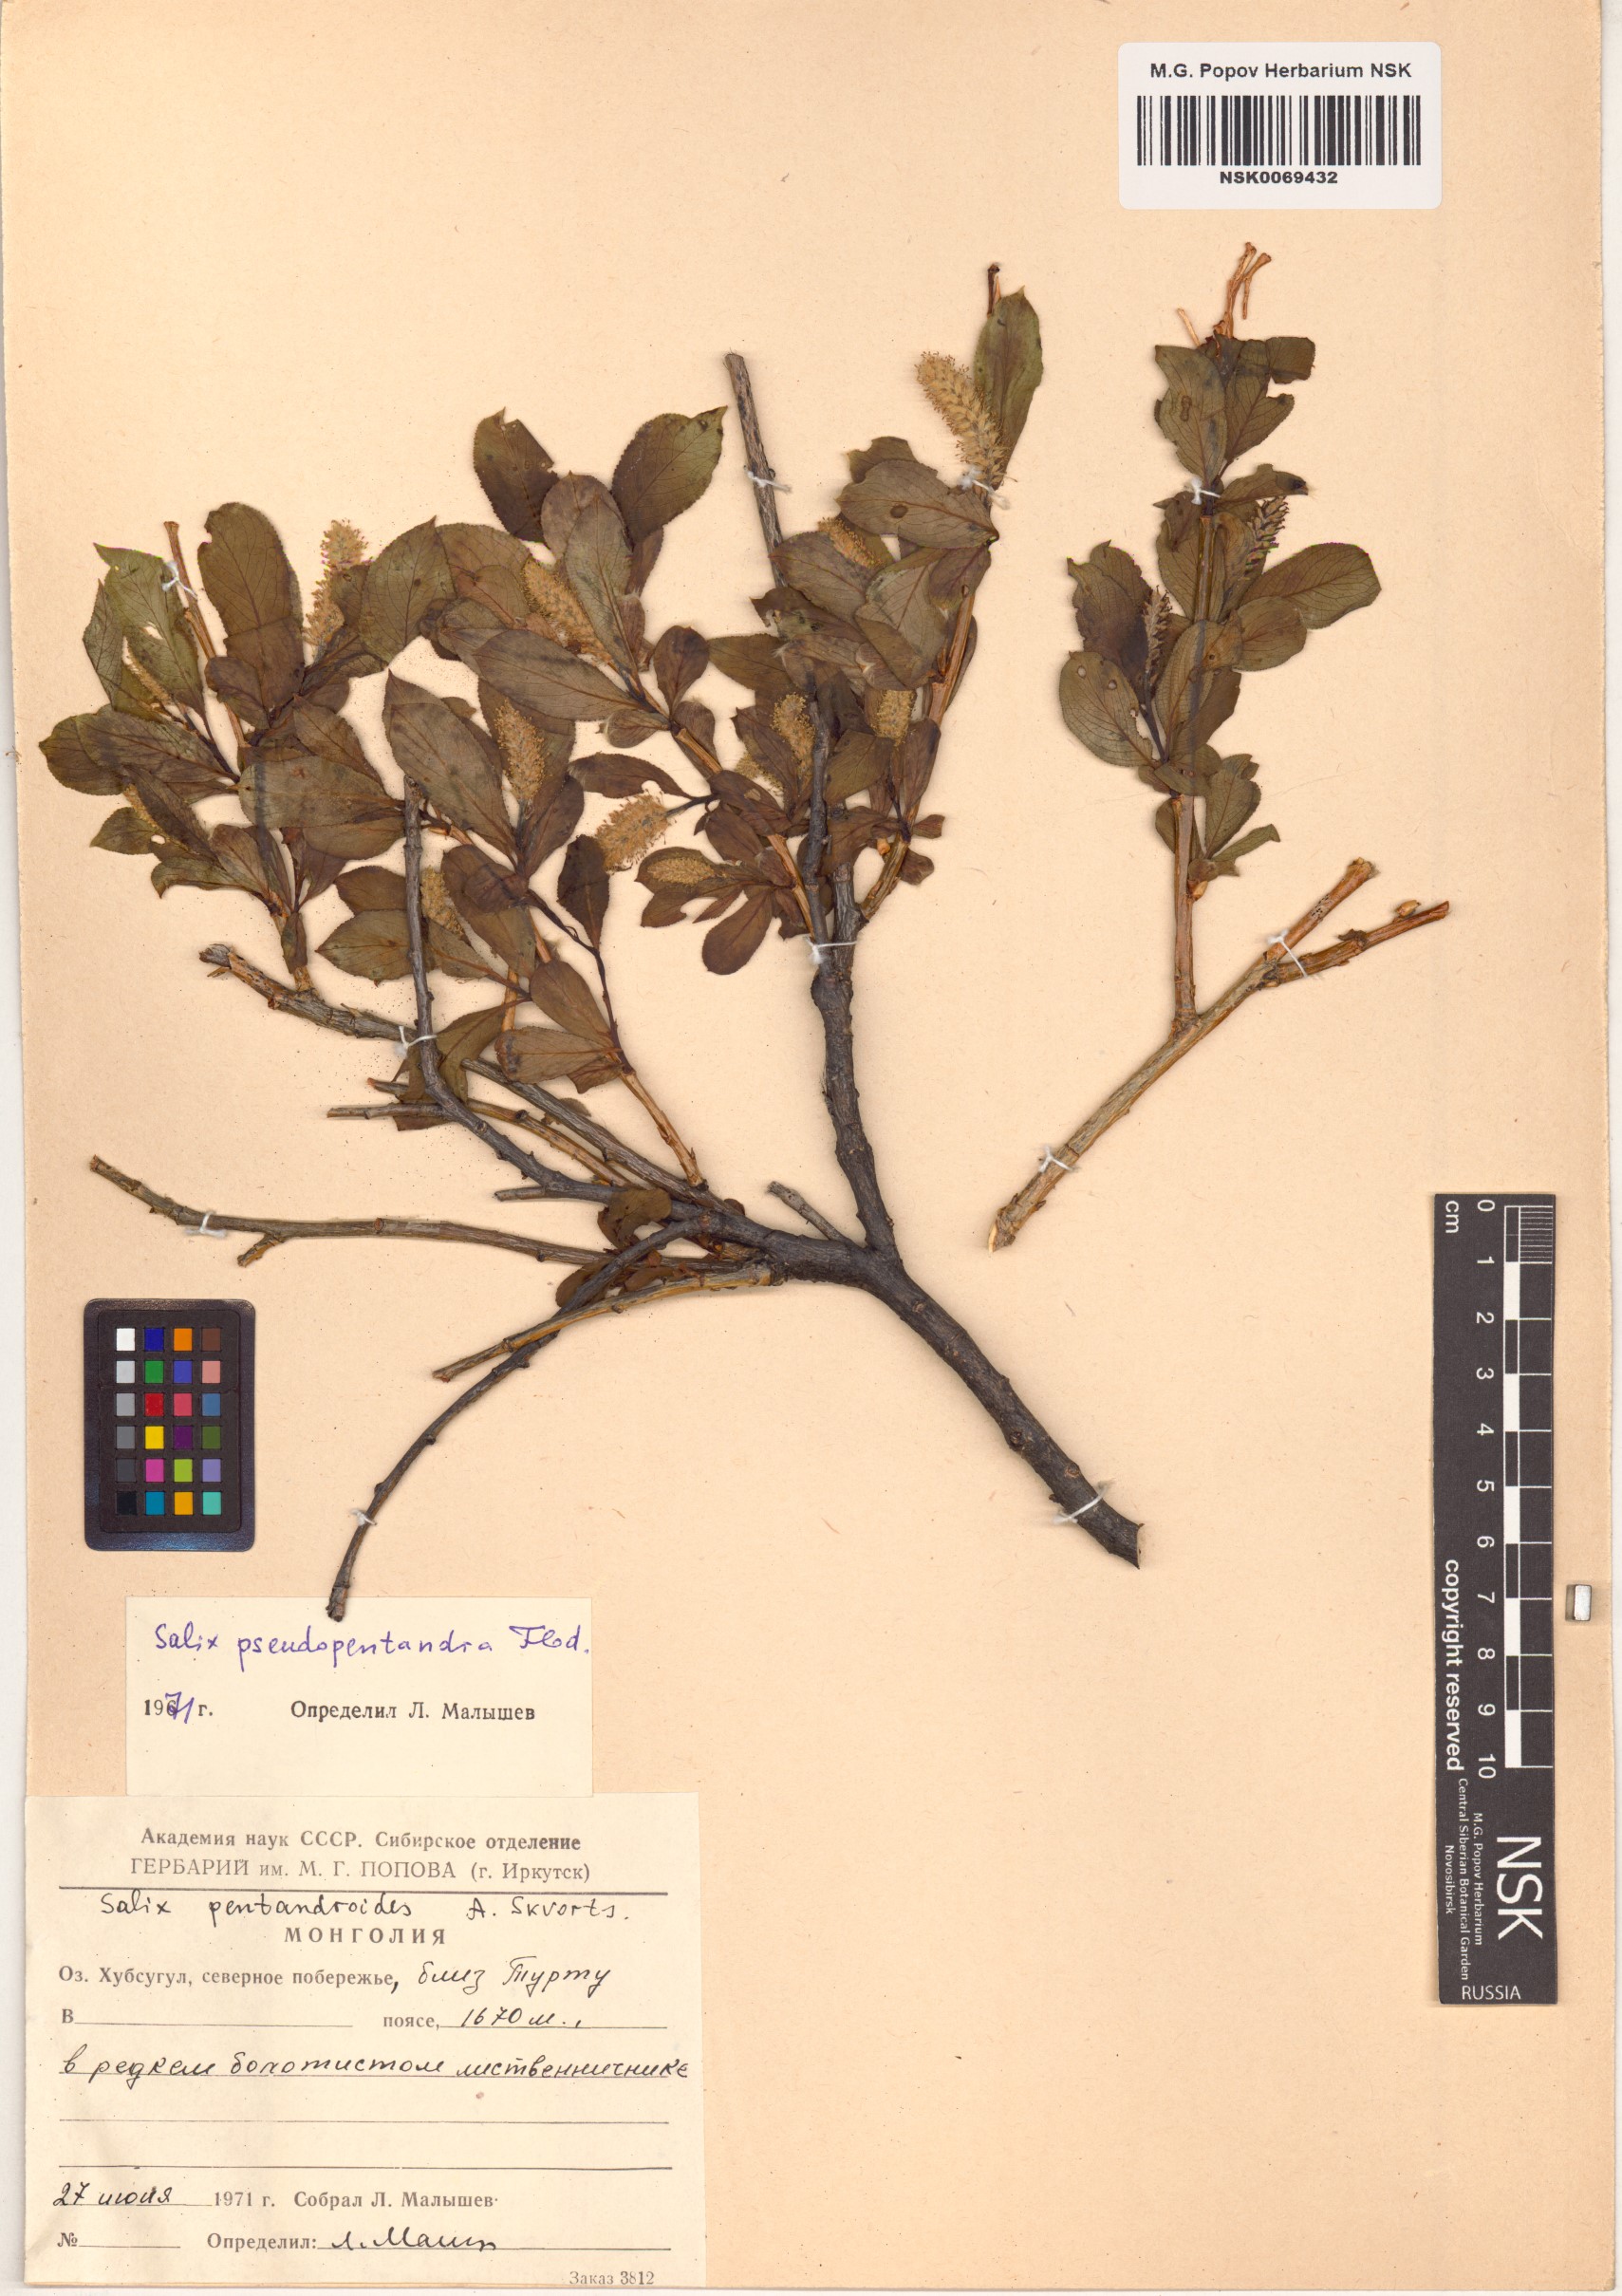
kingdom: Plantae
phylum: Tracheophyta
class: Magnoliopsida
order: Malpighiales
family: Salicaceae
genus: Salix
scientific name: Salix pseudopentandra
